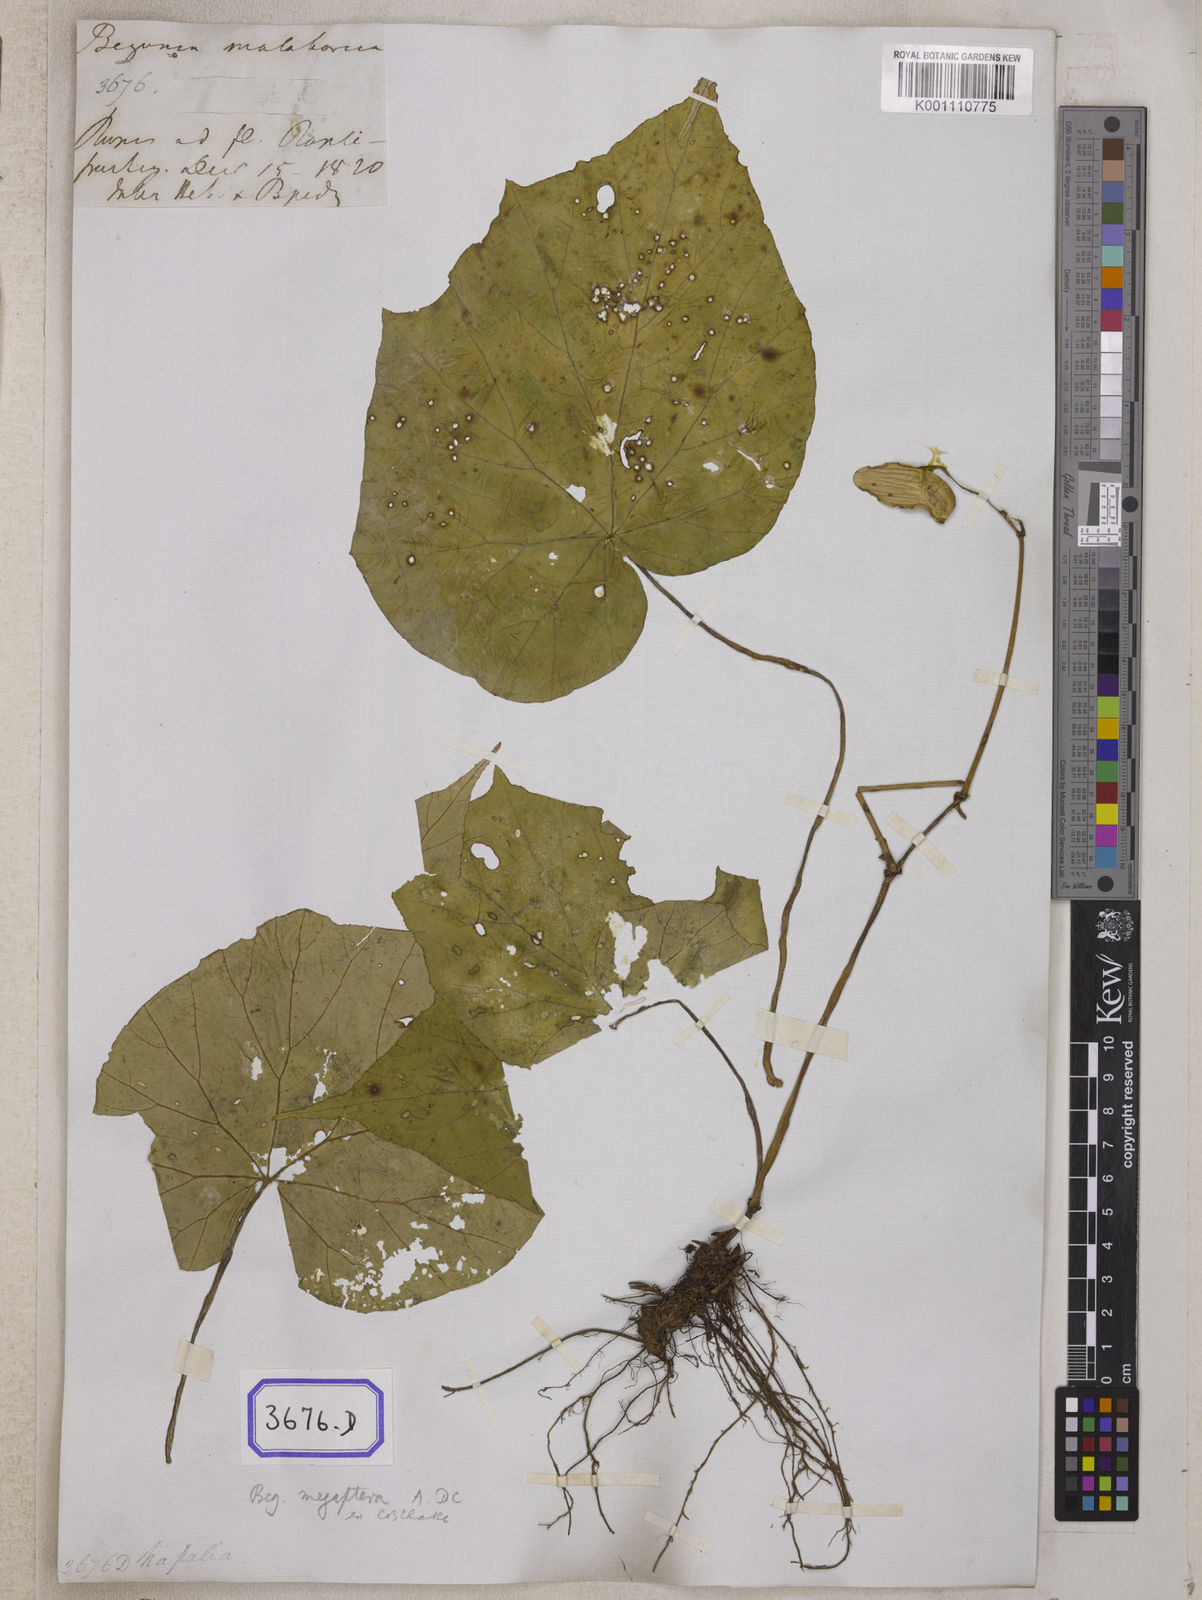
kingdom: Plantae
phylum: Tracheophyta
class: Magnoliopsida
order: Cucurbitales
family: Begoniaceae
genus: Begonia
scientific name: Begonia
